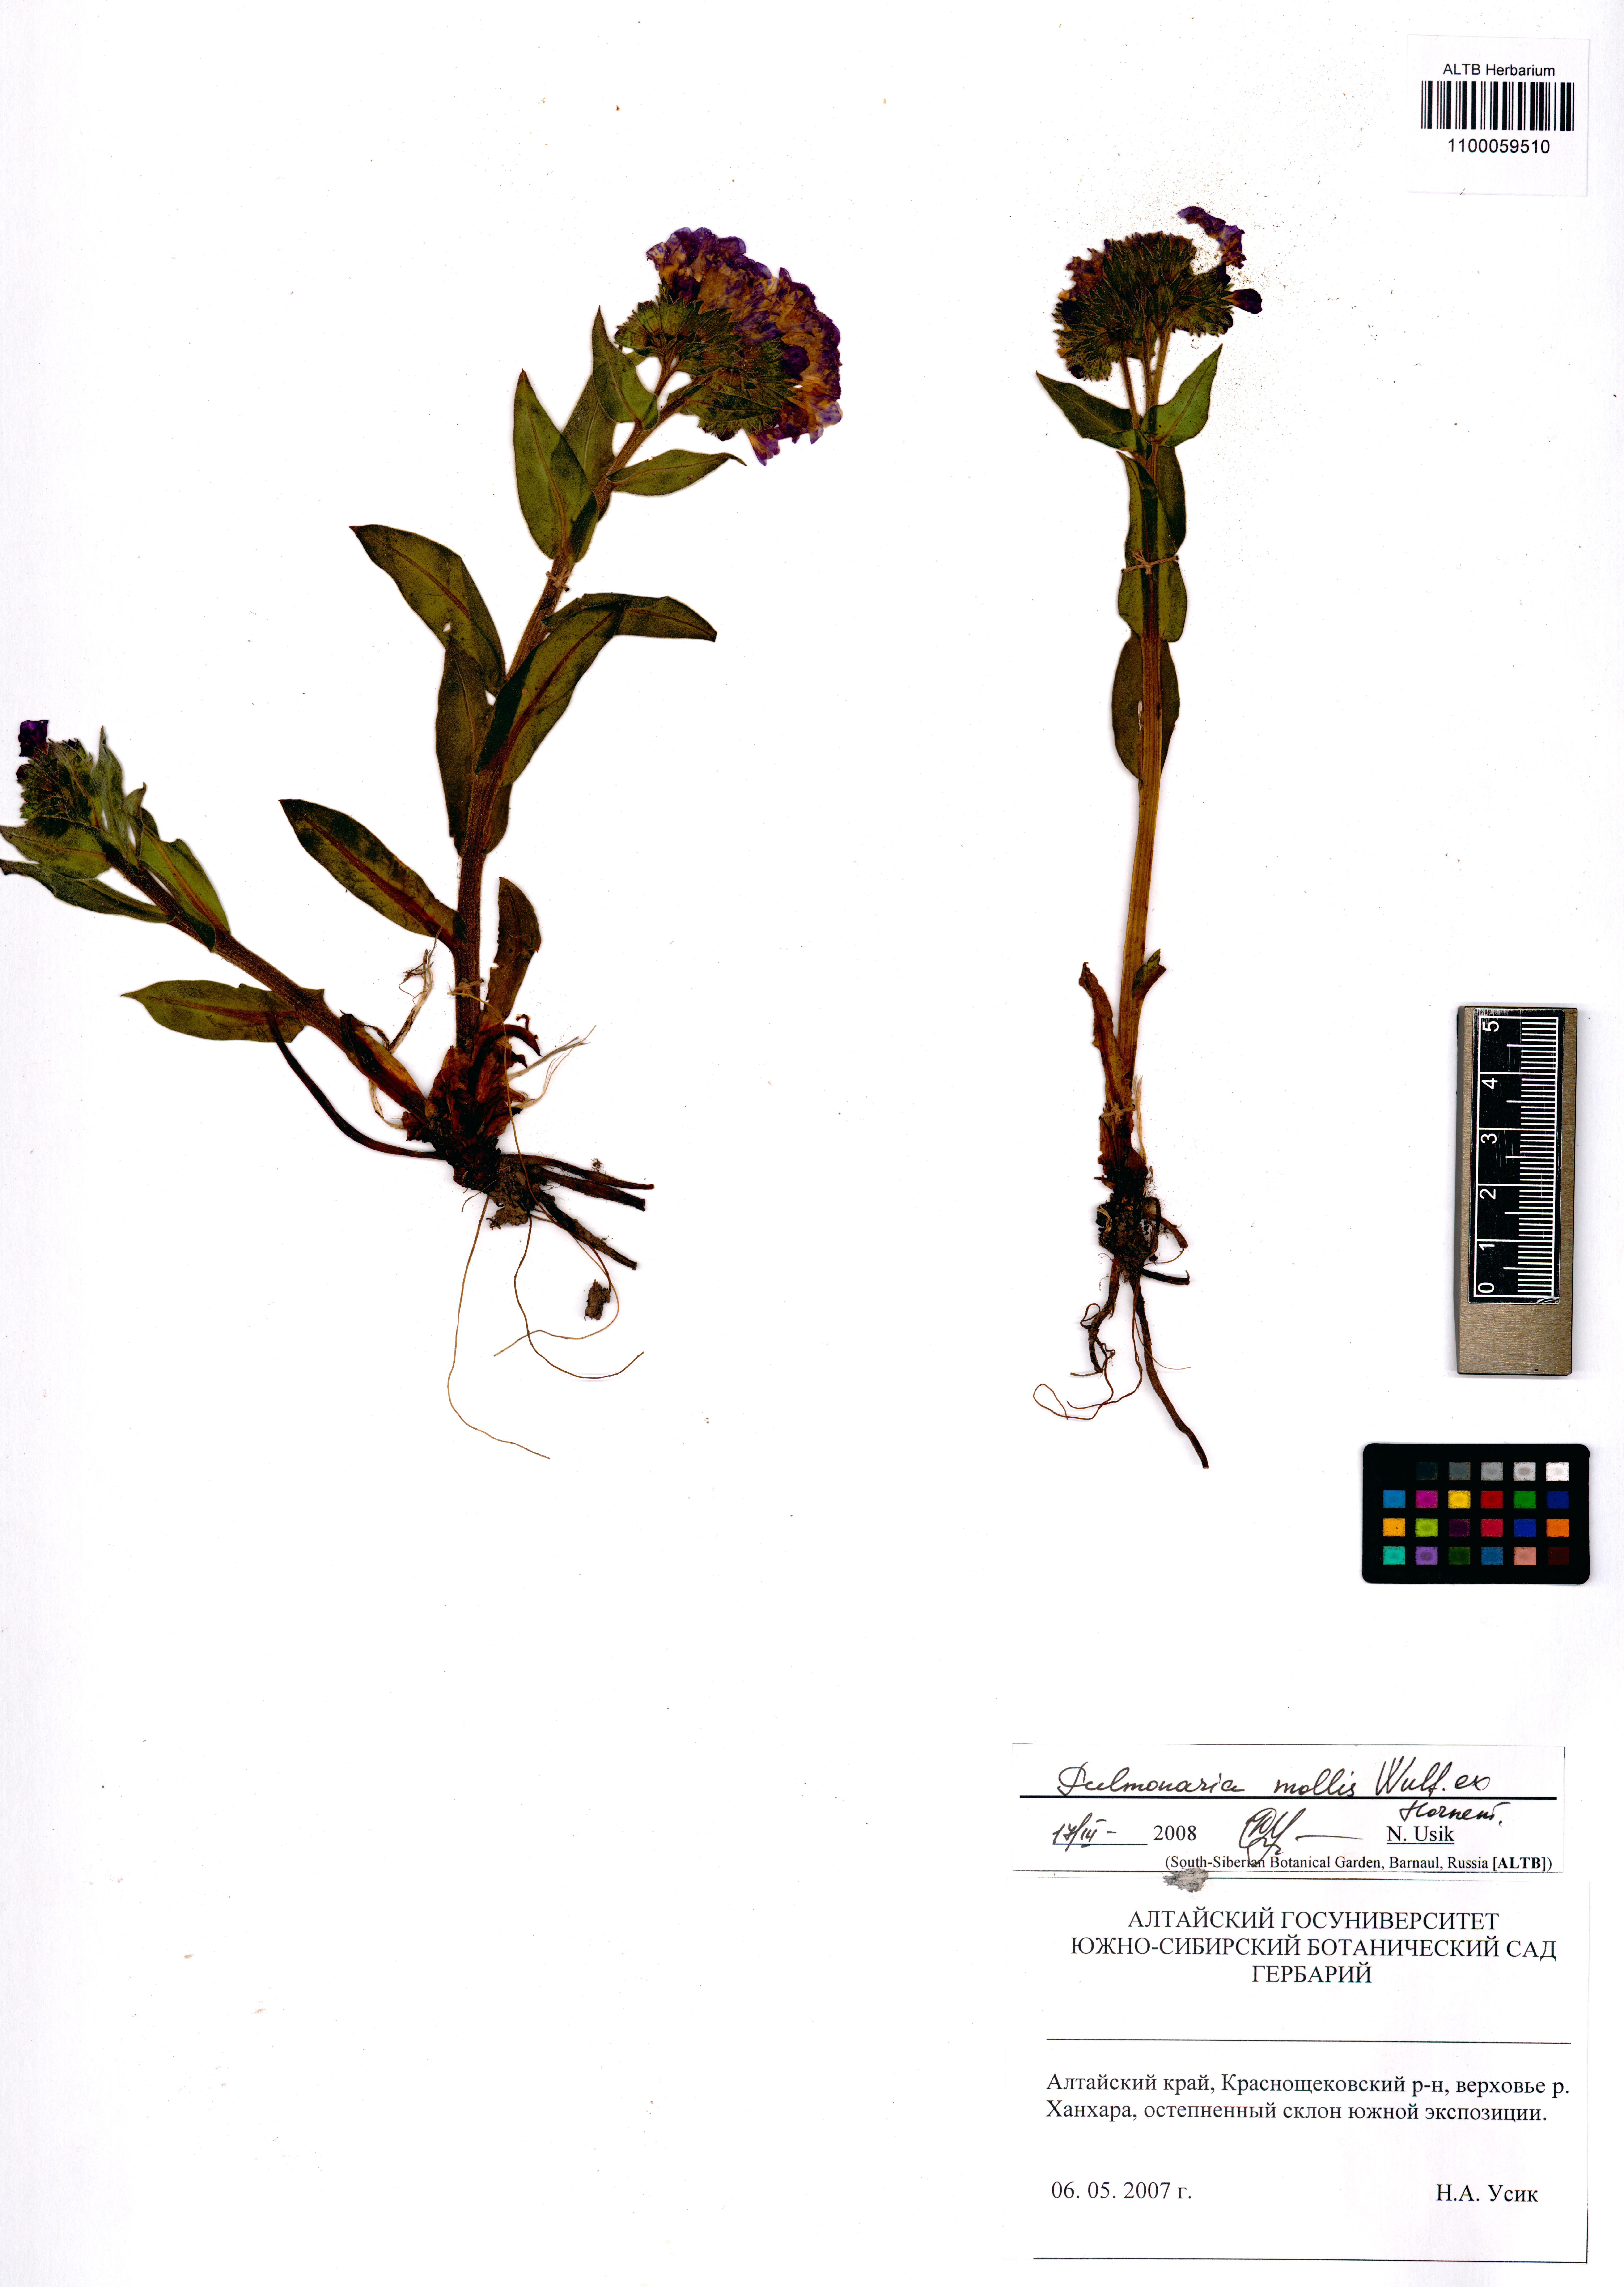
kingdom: Plantae
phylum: Tracheophyta
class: Magnoliopsida
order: Boraginales
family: Boraginaceae
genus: Pulmonaria
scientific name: Pulmonaria mollis
